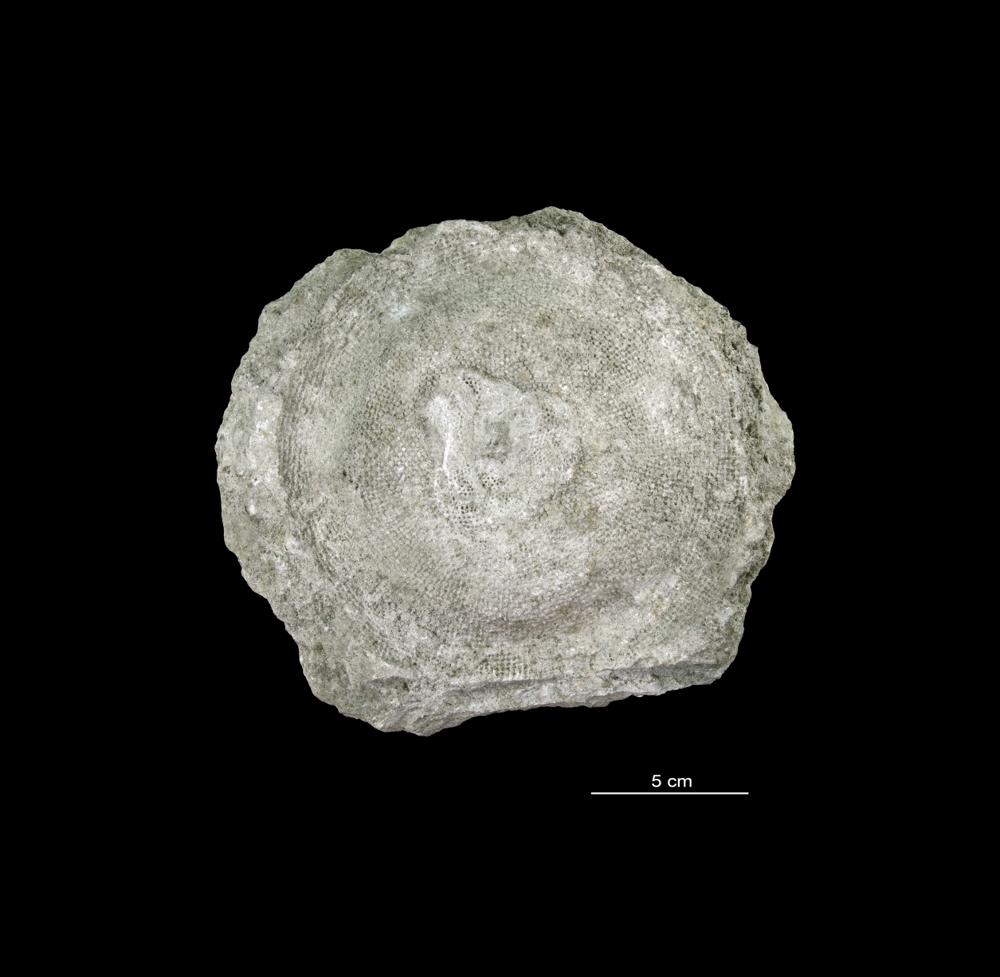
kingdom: Plantae
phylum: Chlorophyta
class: Chlorophyceae
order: Receptaculitales
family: Receptaculitaceae
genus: Receptaculites
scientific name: Receptaculites
